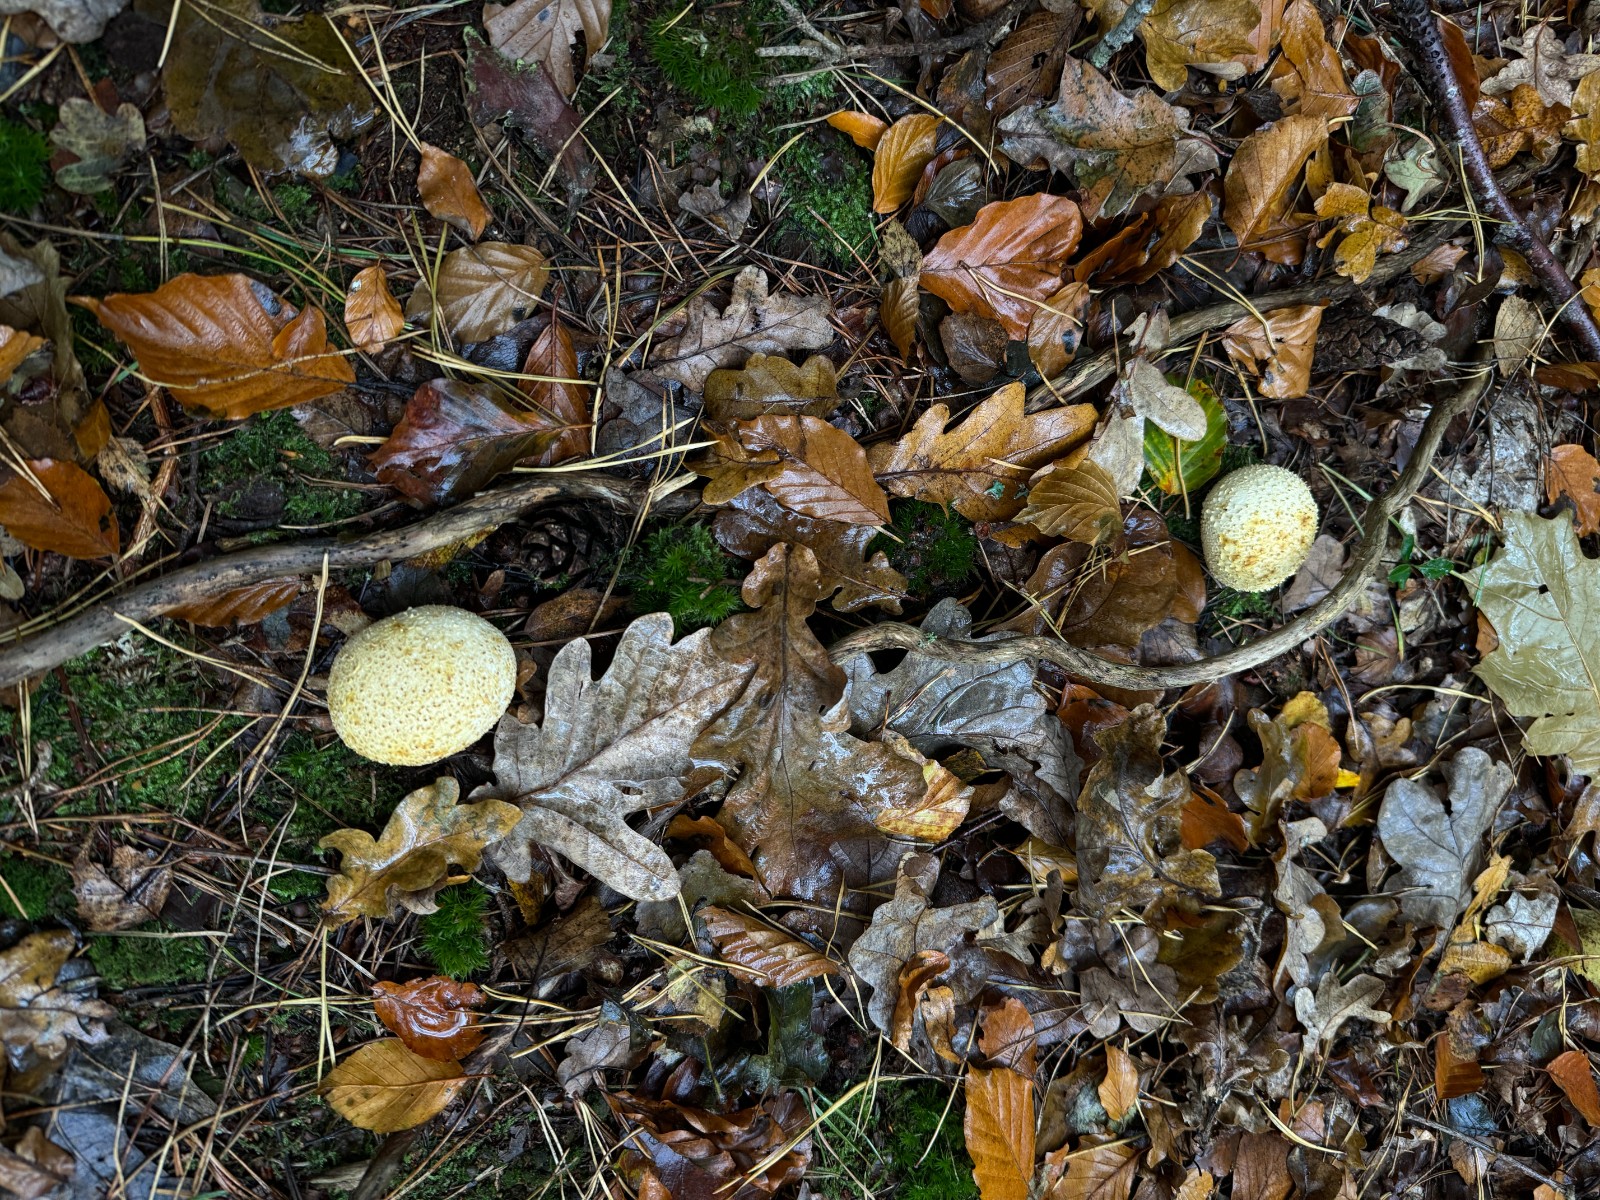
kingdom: Fungi
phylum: Basidiomycota
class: Agaricomycetes
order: Boletales
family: Sclerodermataceae
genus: Scleroderma
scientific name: Scleroderma citrinum
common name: almindelig bruskbold
